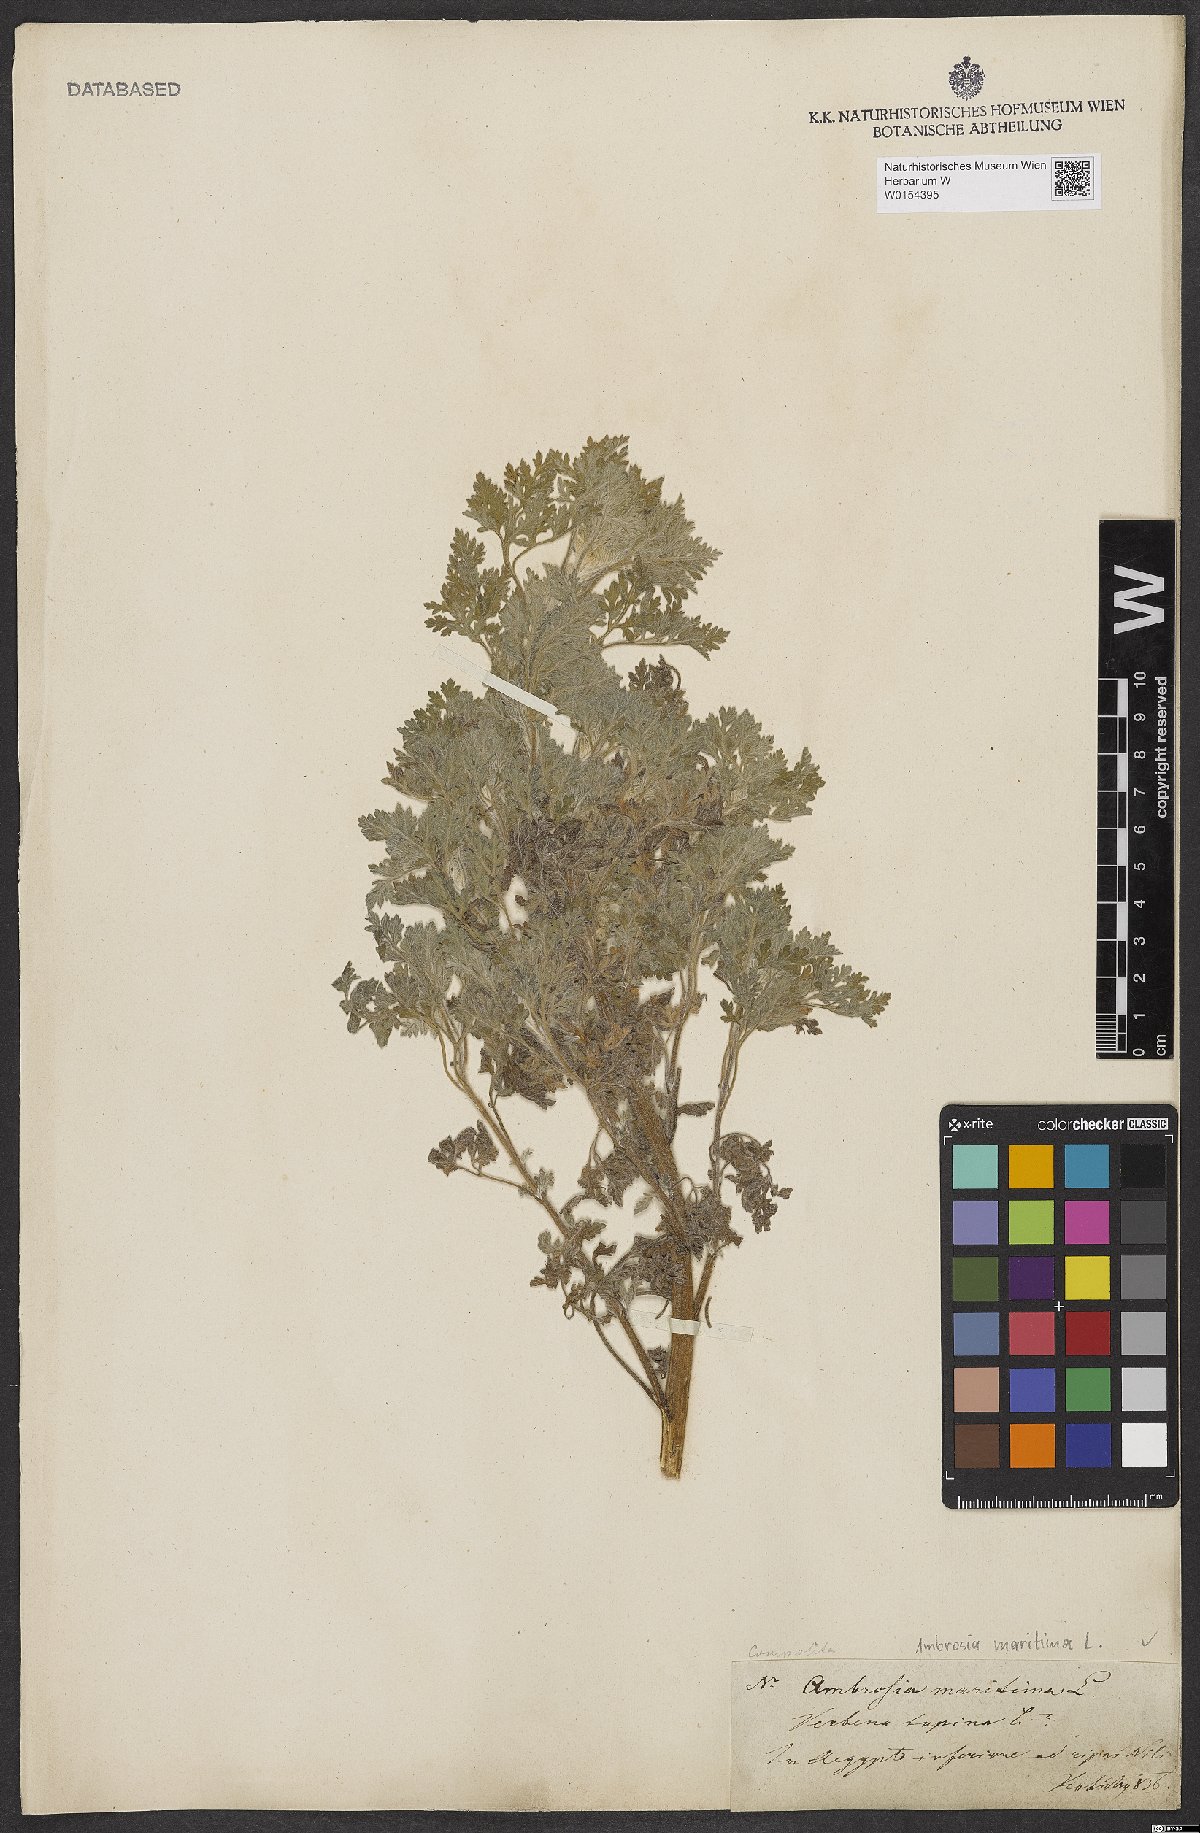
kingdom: Plantae
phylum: Tracheophyta
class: Magnoliopsida
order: Asterales
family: Asteraceae
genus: Ambrosia
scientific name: Ambrosia maritima
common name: Sea ambrosia
